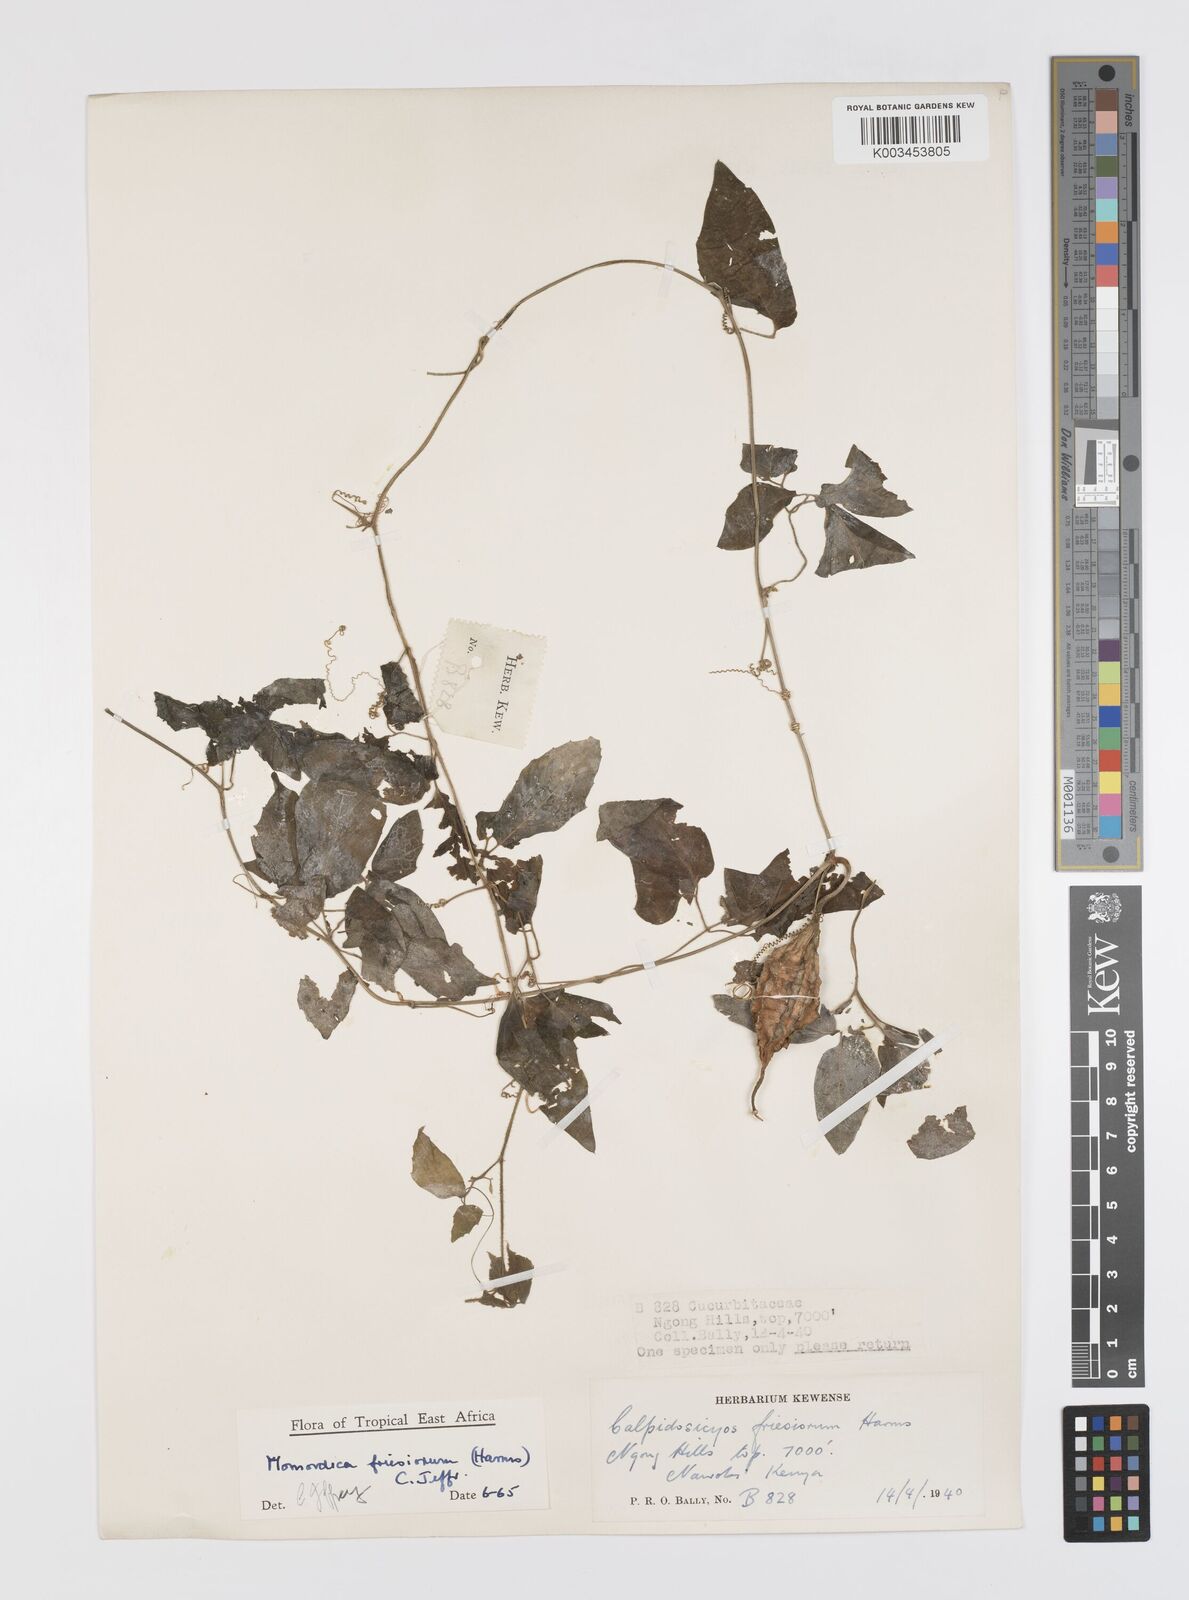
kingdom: Plantae
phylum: Tracheophyta
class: Magnoliopsida
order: Cucurbitales
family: Cucurbitaceae
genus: Momordica
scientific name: Momordica friesiorum
